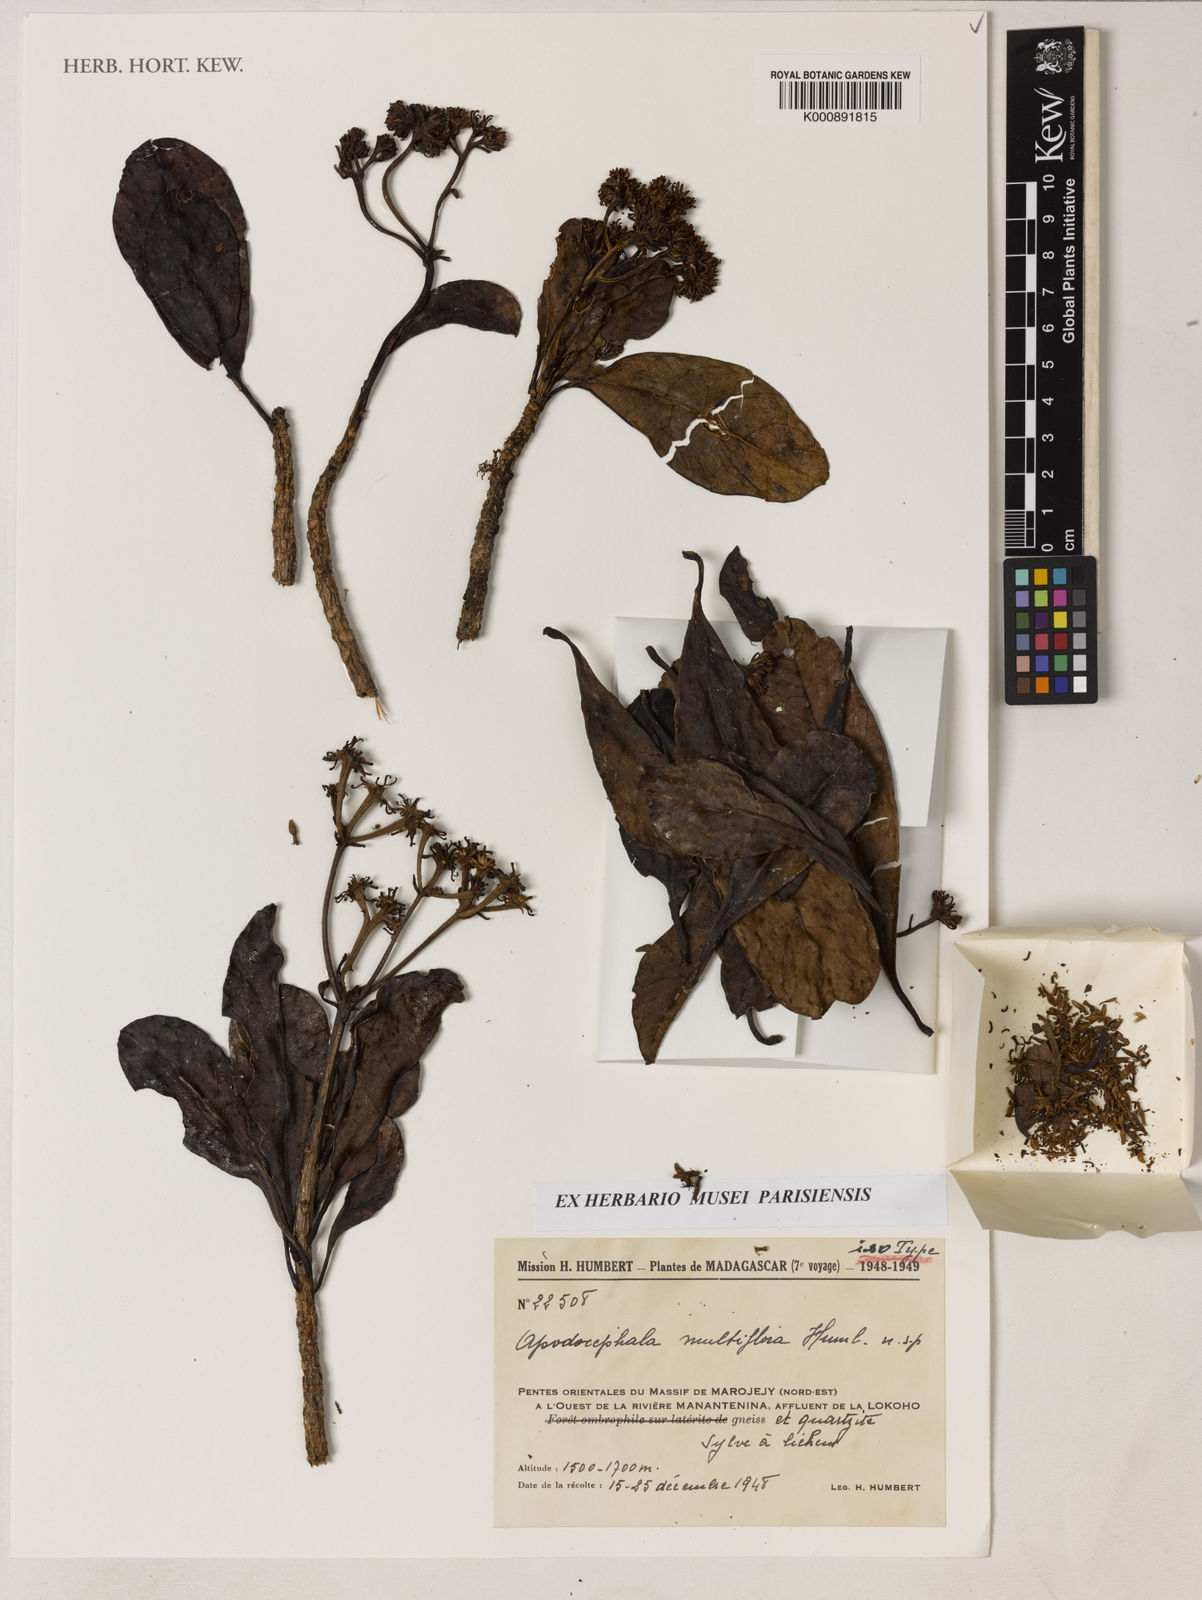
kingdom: Plantae
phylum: Tracheophyta
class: Magnoliopsida
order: Asterales
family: Asteraceae
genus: Apodocephala
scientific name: Apodocephala multiflora
